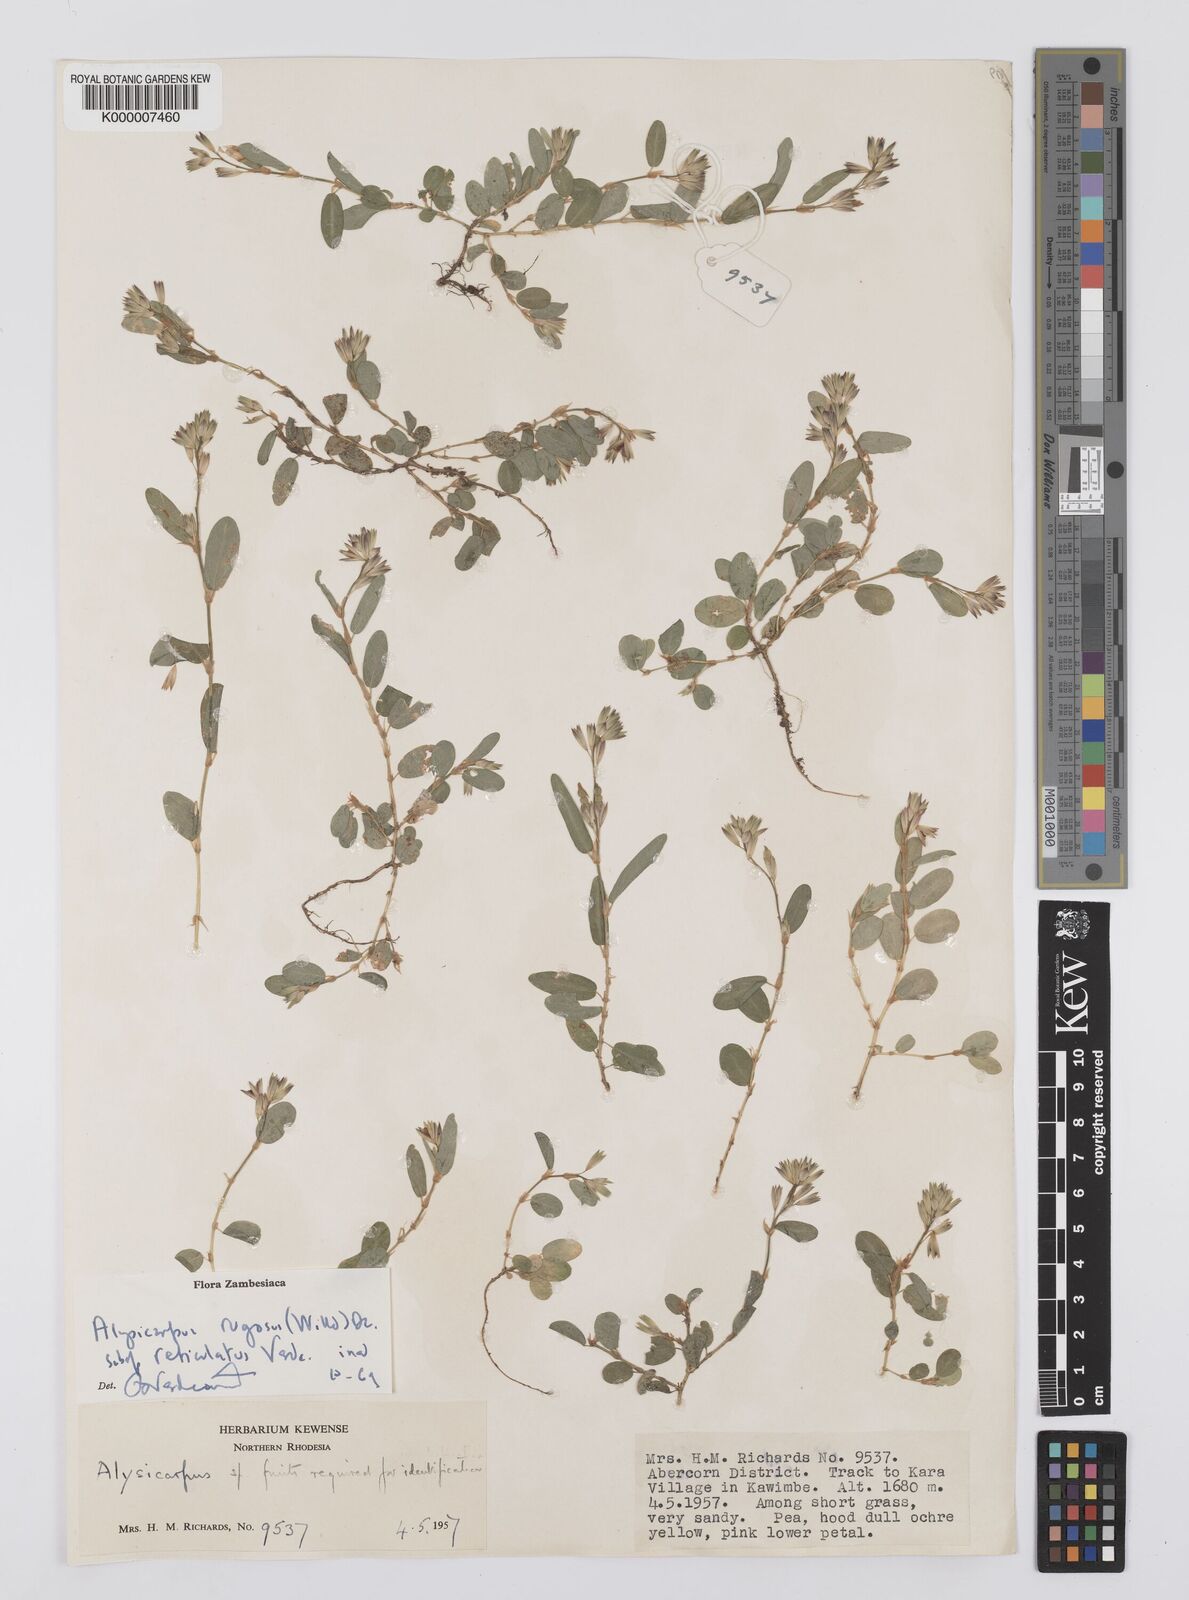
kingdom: Plantae
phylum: Tracheophyta
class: Magnoliopsida
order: Fabales
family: Fabaceae
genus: Alysicarpus
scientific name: Alysicarpus rugosus
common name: Red moneywort
